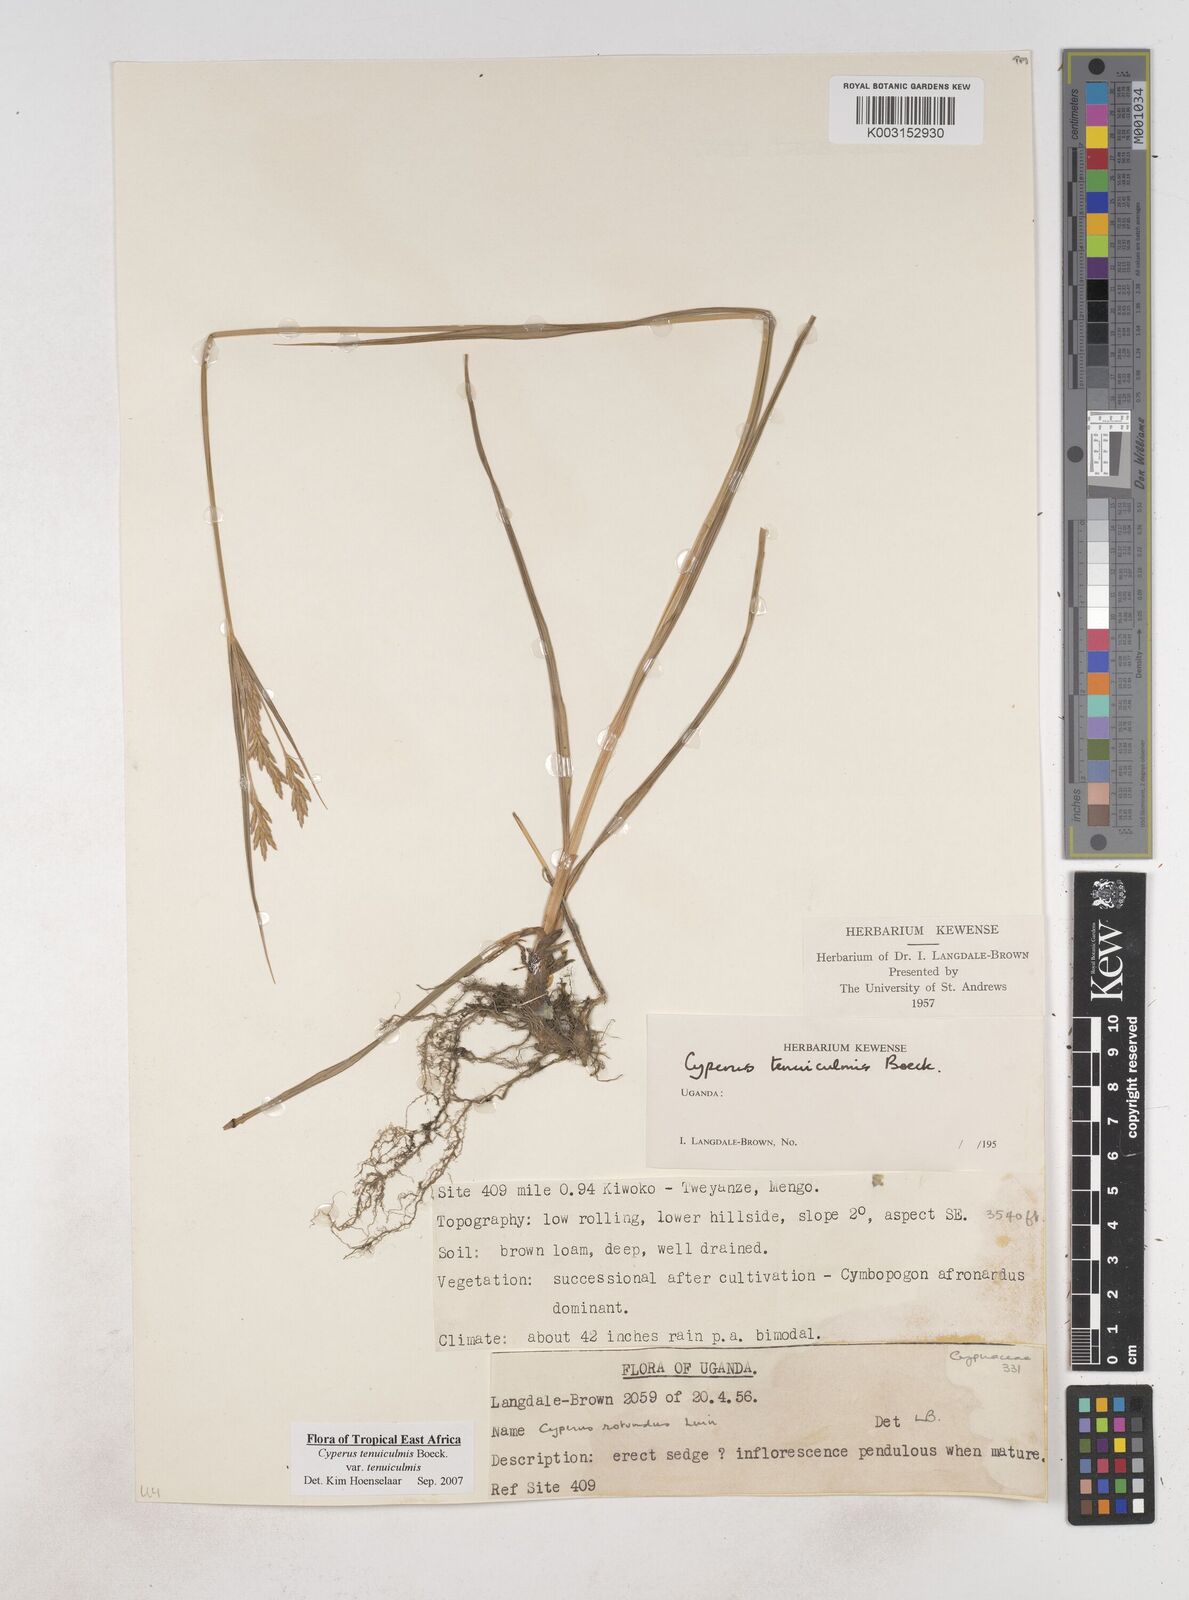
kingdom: Plantae
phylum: Tracheophyta
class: Liliopsida
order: Poales
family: Cyperaceae
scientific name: Cyperaceae
